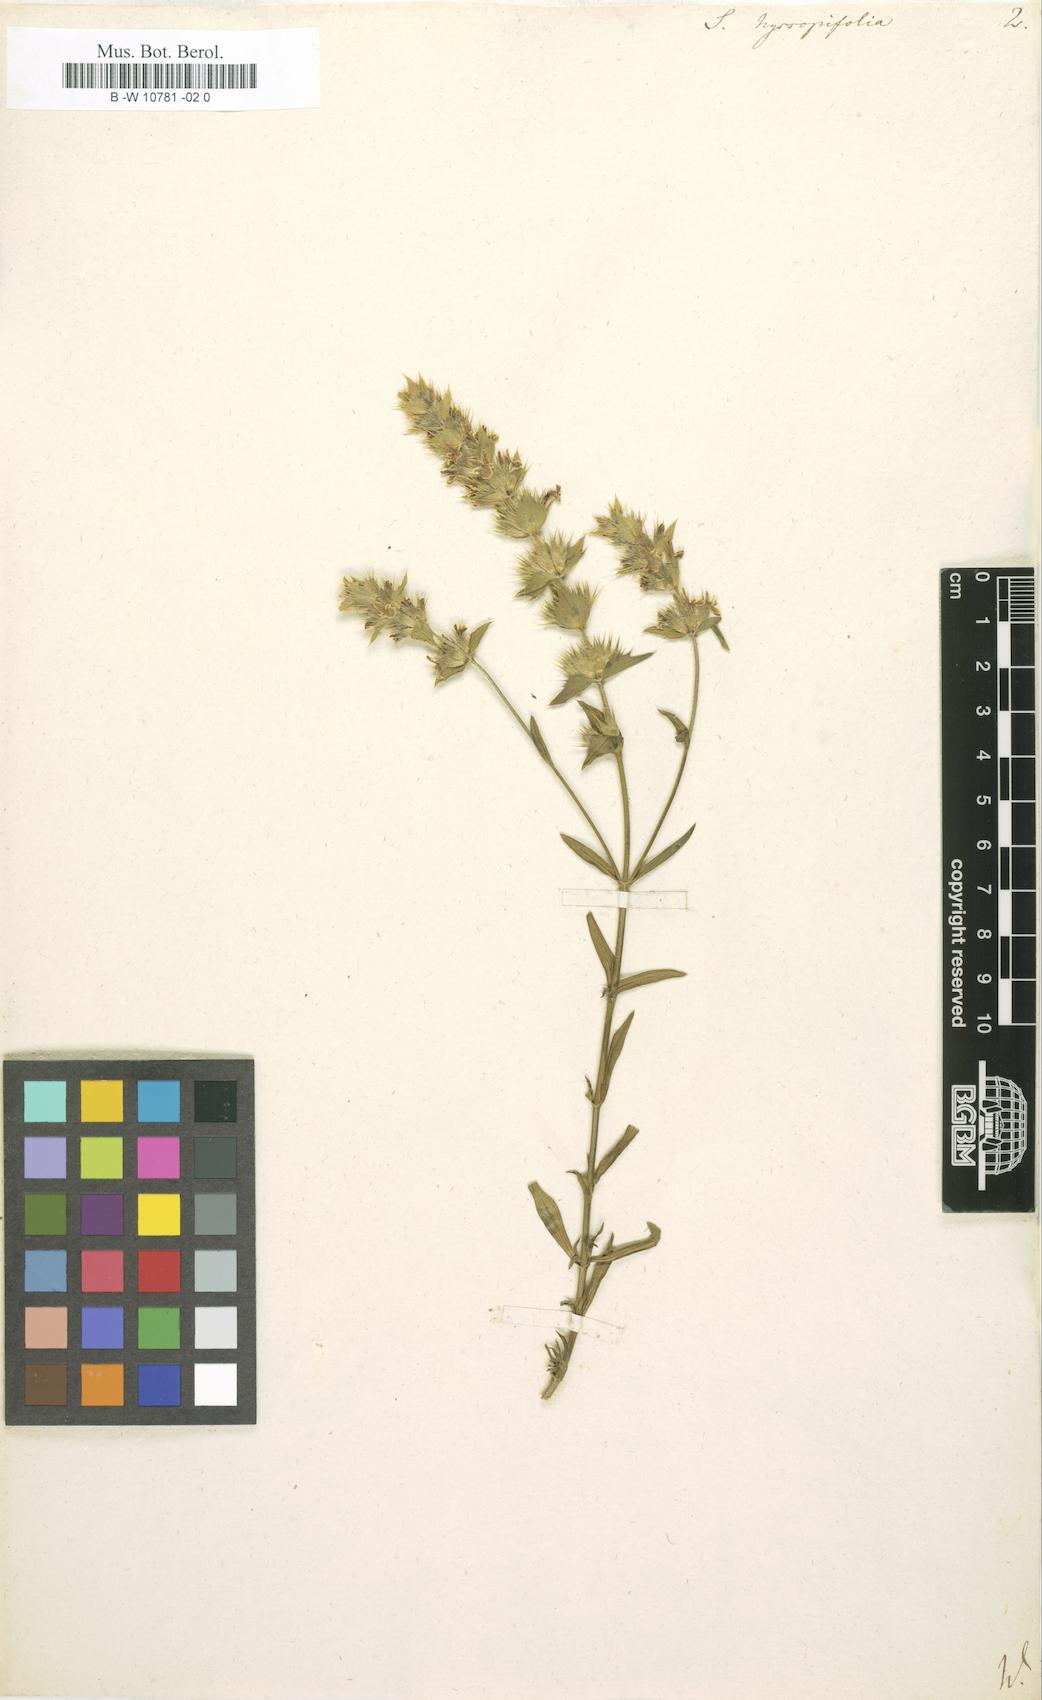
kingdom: Plantae
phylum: Tracheophyta
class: Magnoliopsida
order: Lamiales
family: Lamiaceae
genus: Sideritis
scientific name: Sideritis hyssopifolia
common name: Mountain tea
